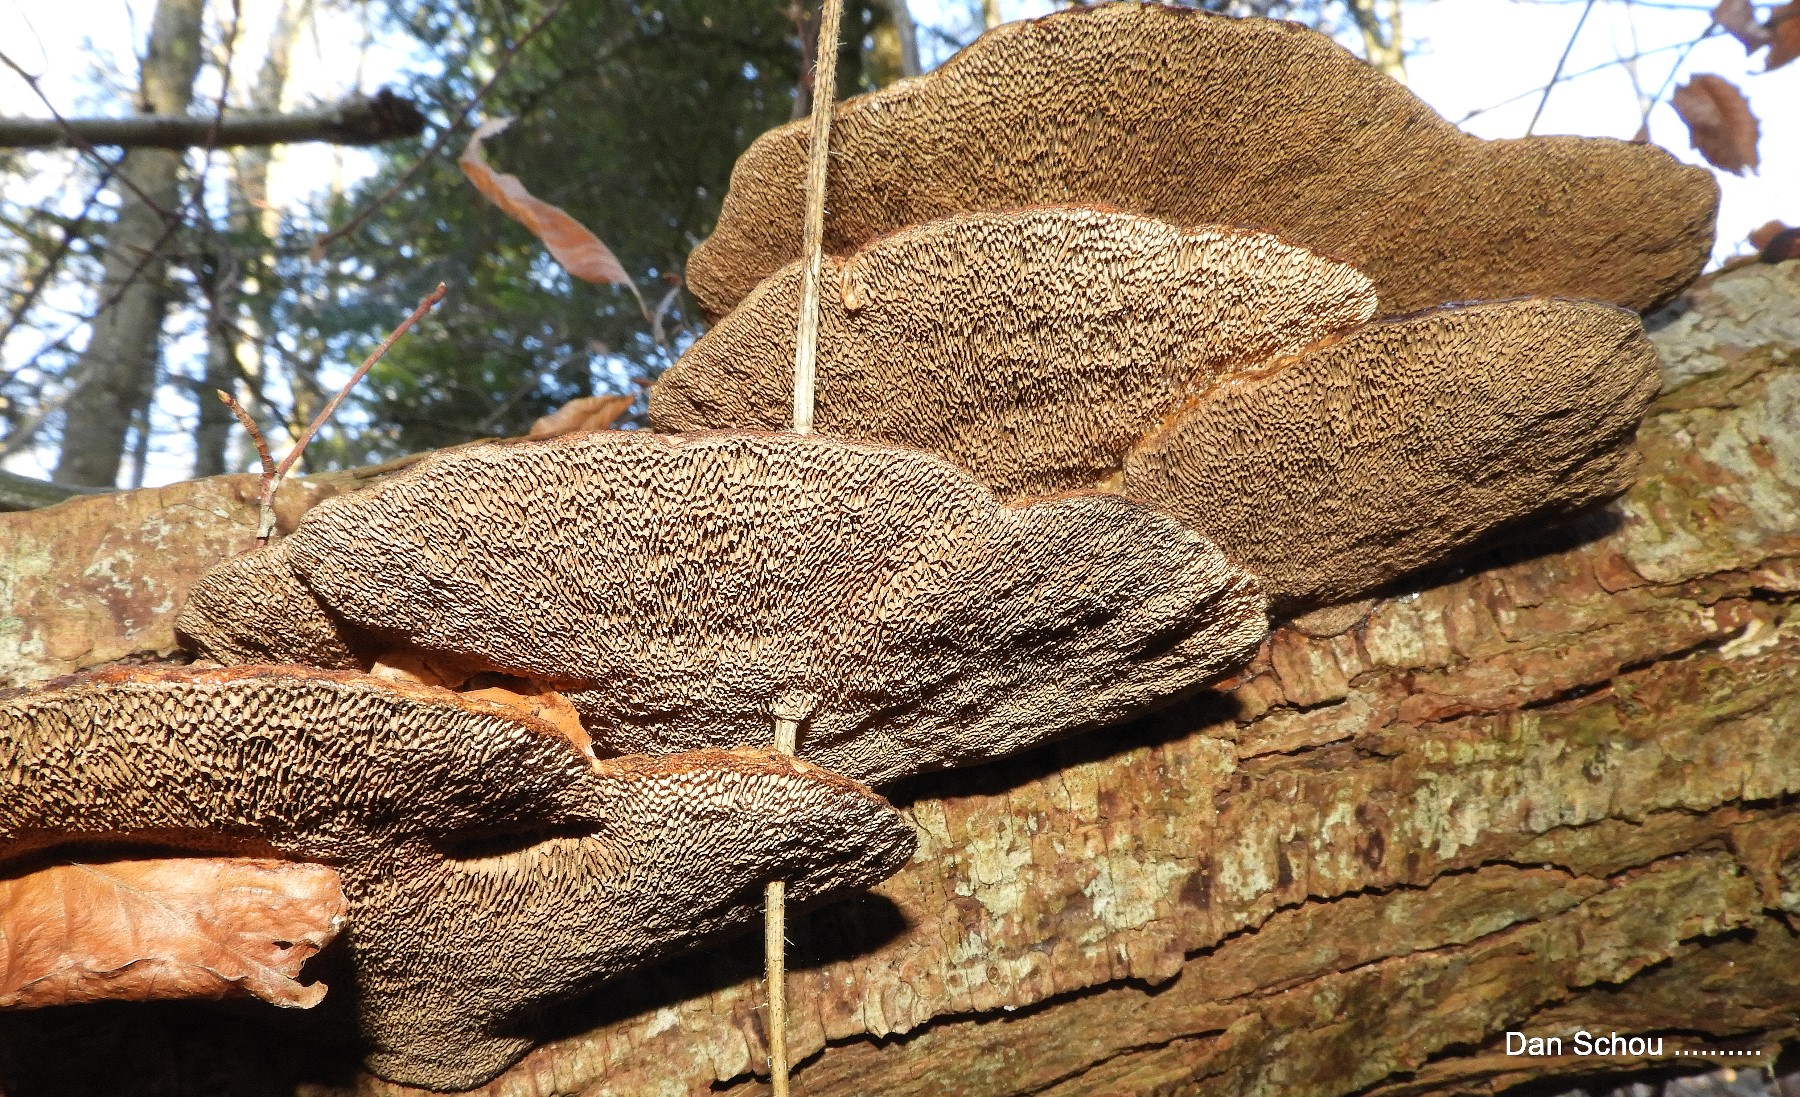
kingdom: Fungi
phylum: Basidiomycota
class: Agaricomycetes
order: Polyporales
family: Polyporaceae
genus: Daedaleopsis
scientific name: Daedaleopsis confragosa
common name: rødmende læderporesvamp
